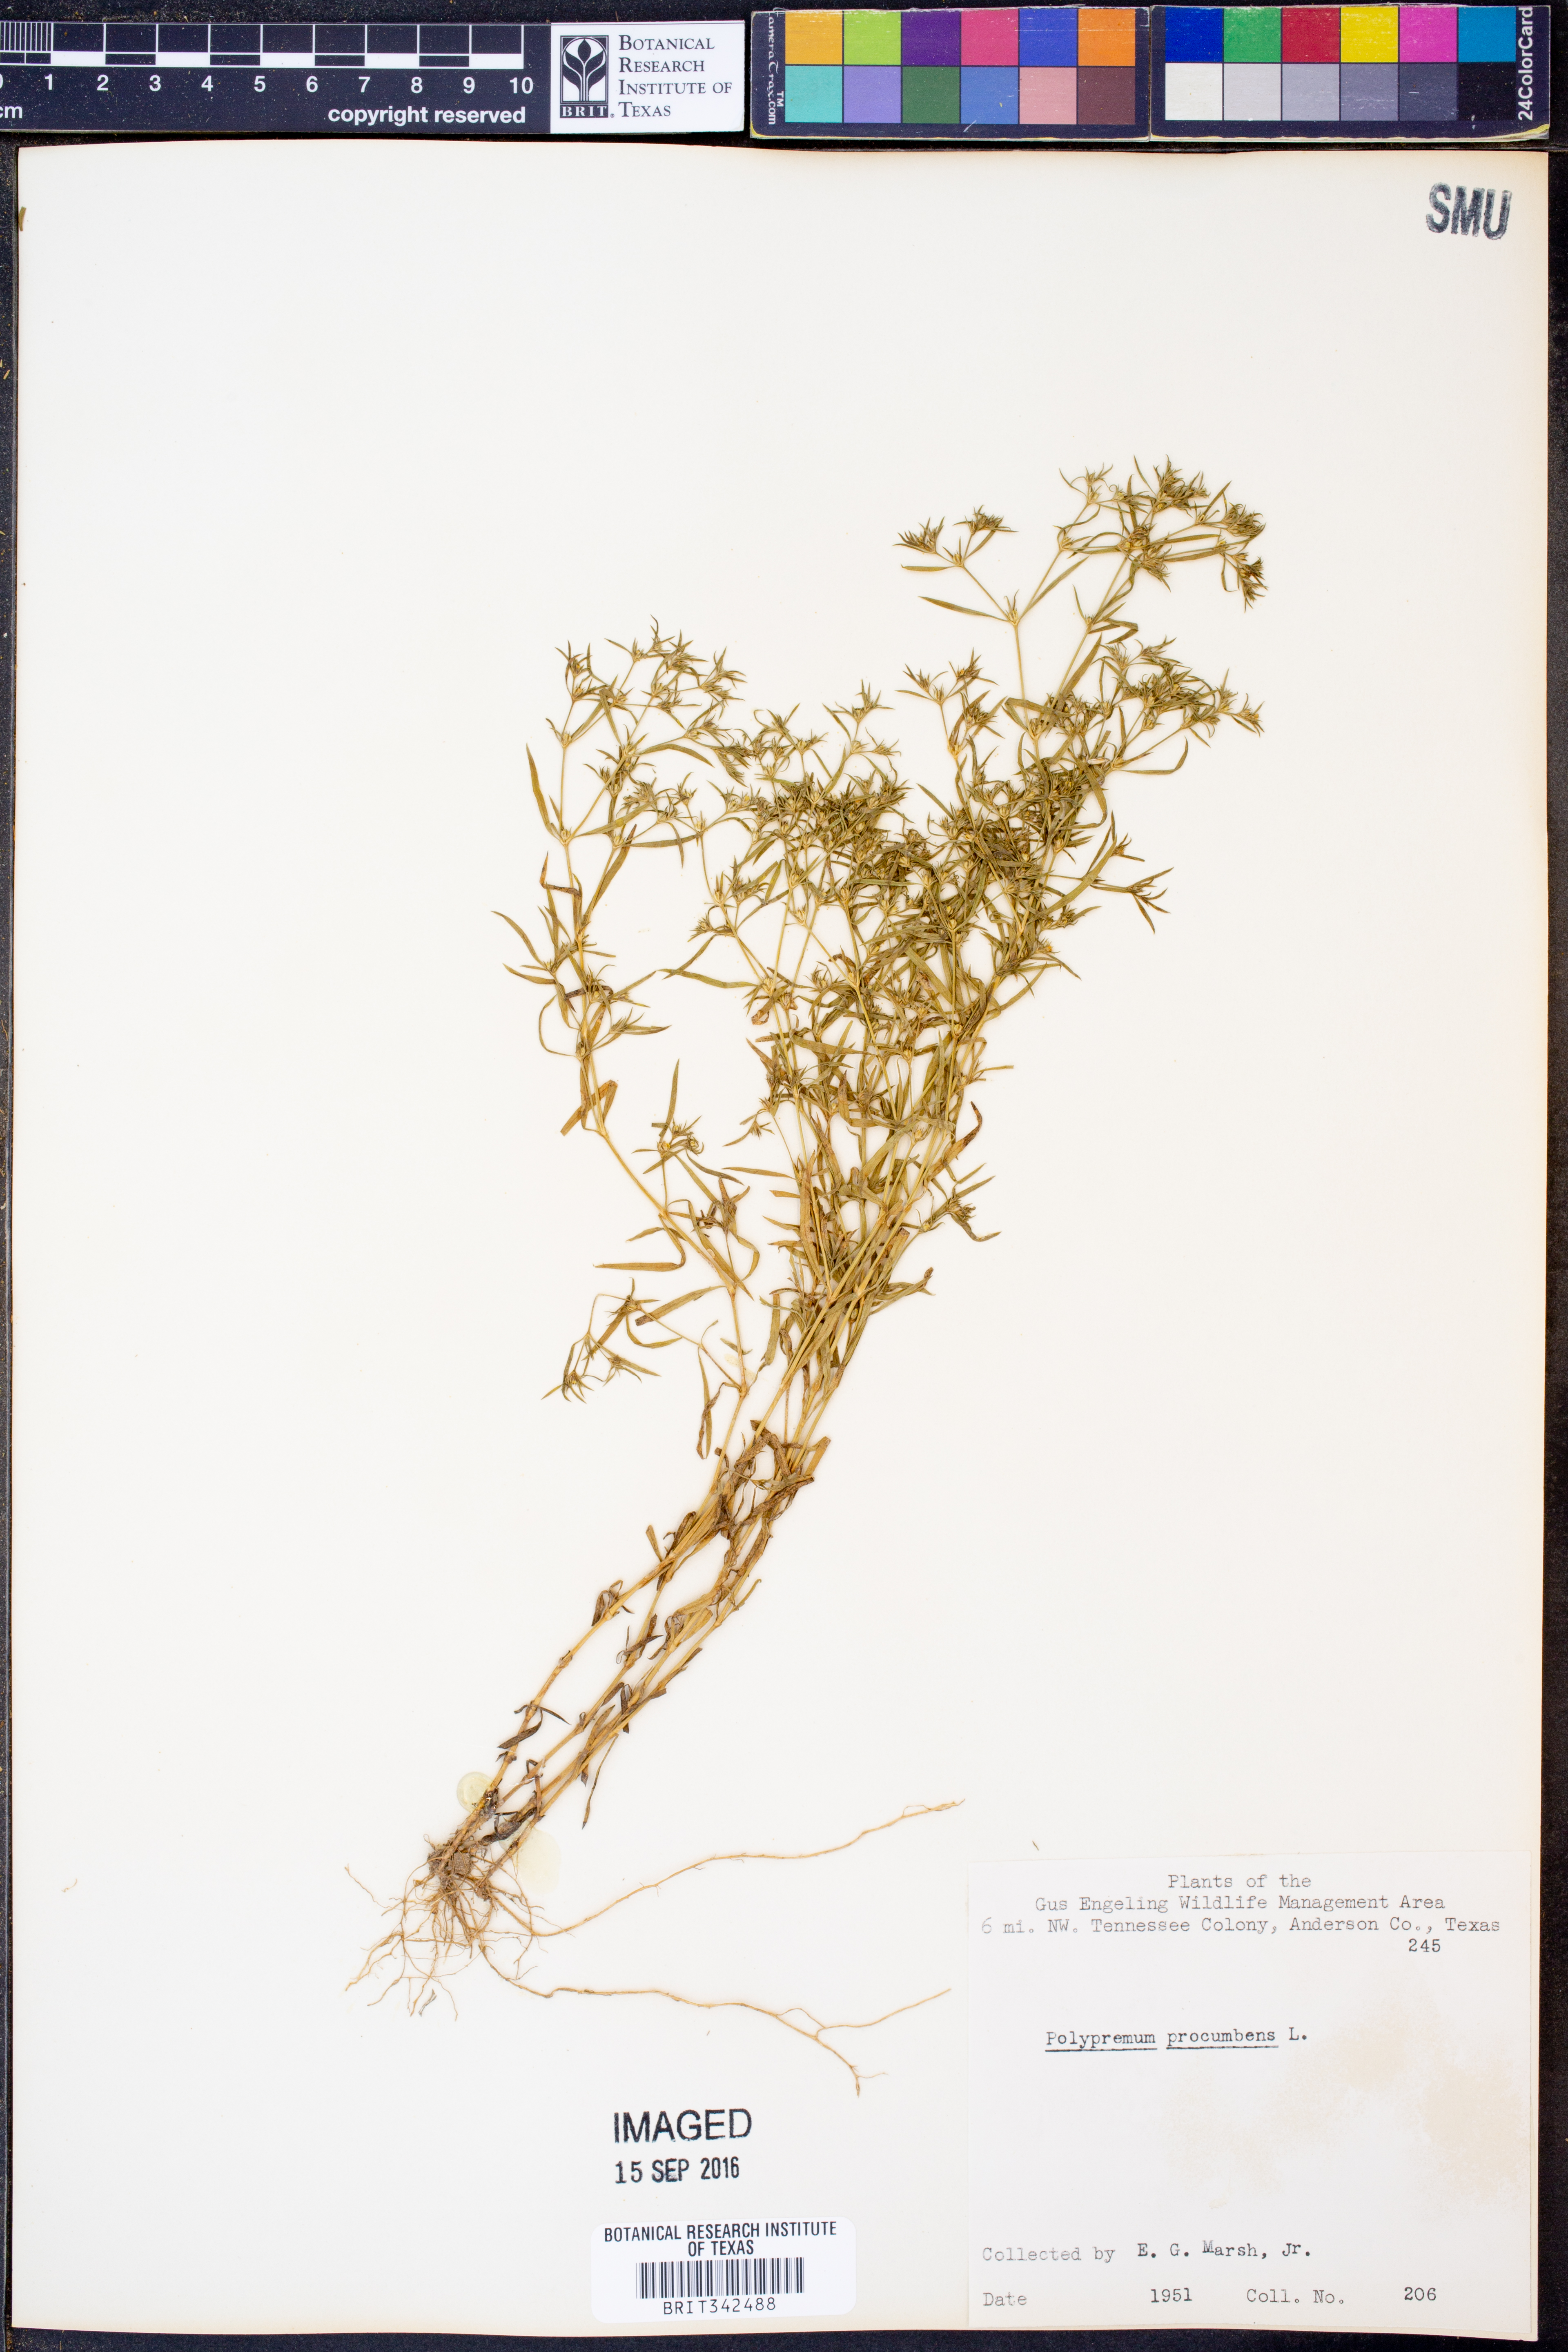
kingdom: Plantae
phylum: Tracheophyta
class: Magnoliopsida
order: Lamiales
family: Tetrachondraceae
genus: Polypremum
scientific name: Polypremum procumbens
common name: Juniper-leaf
